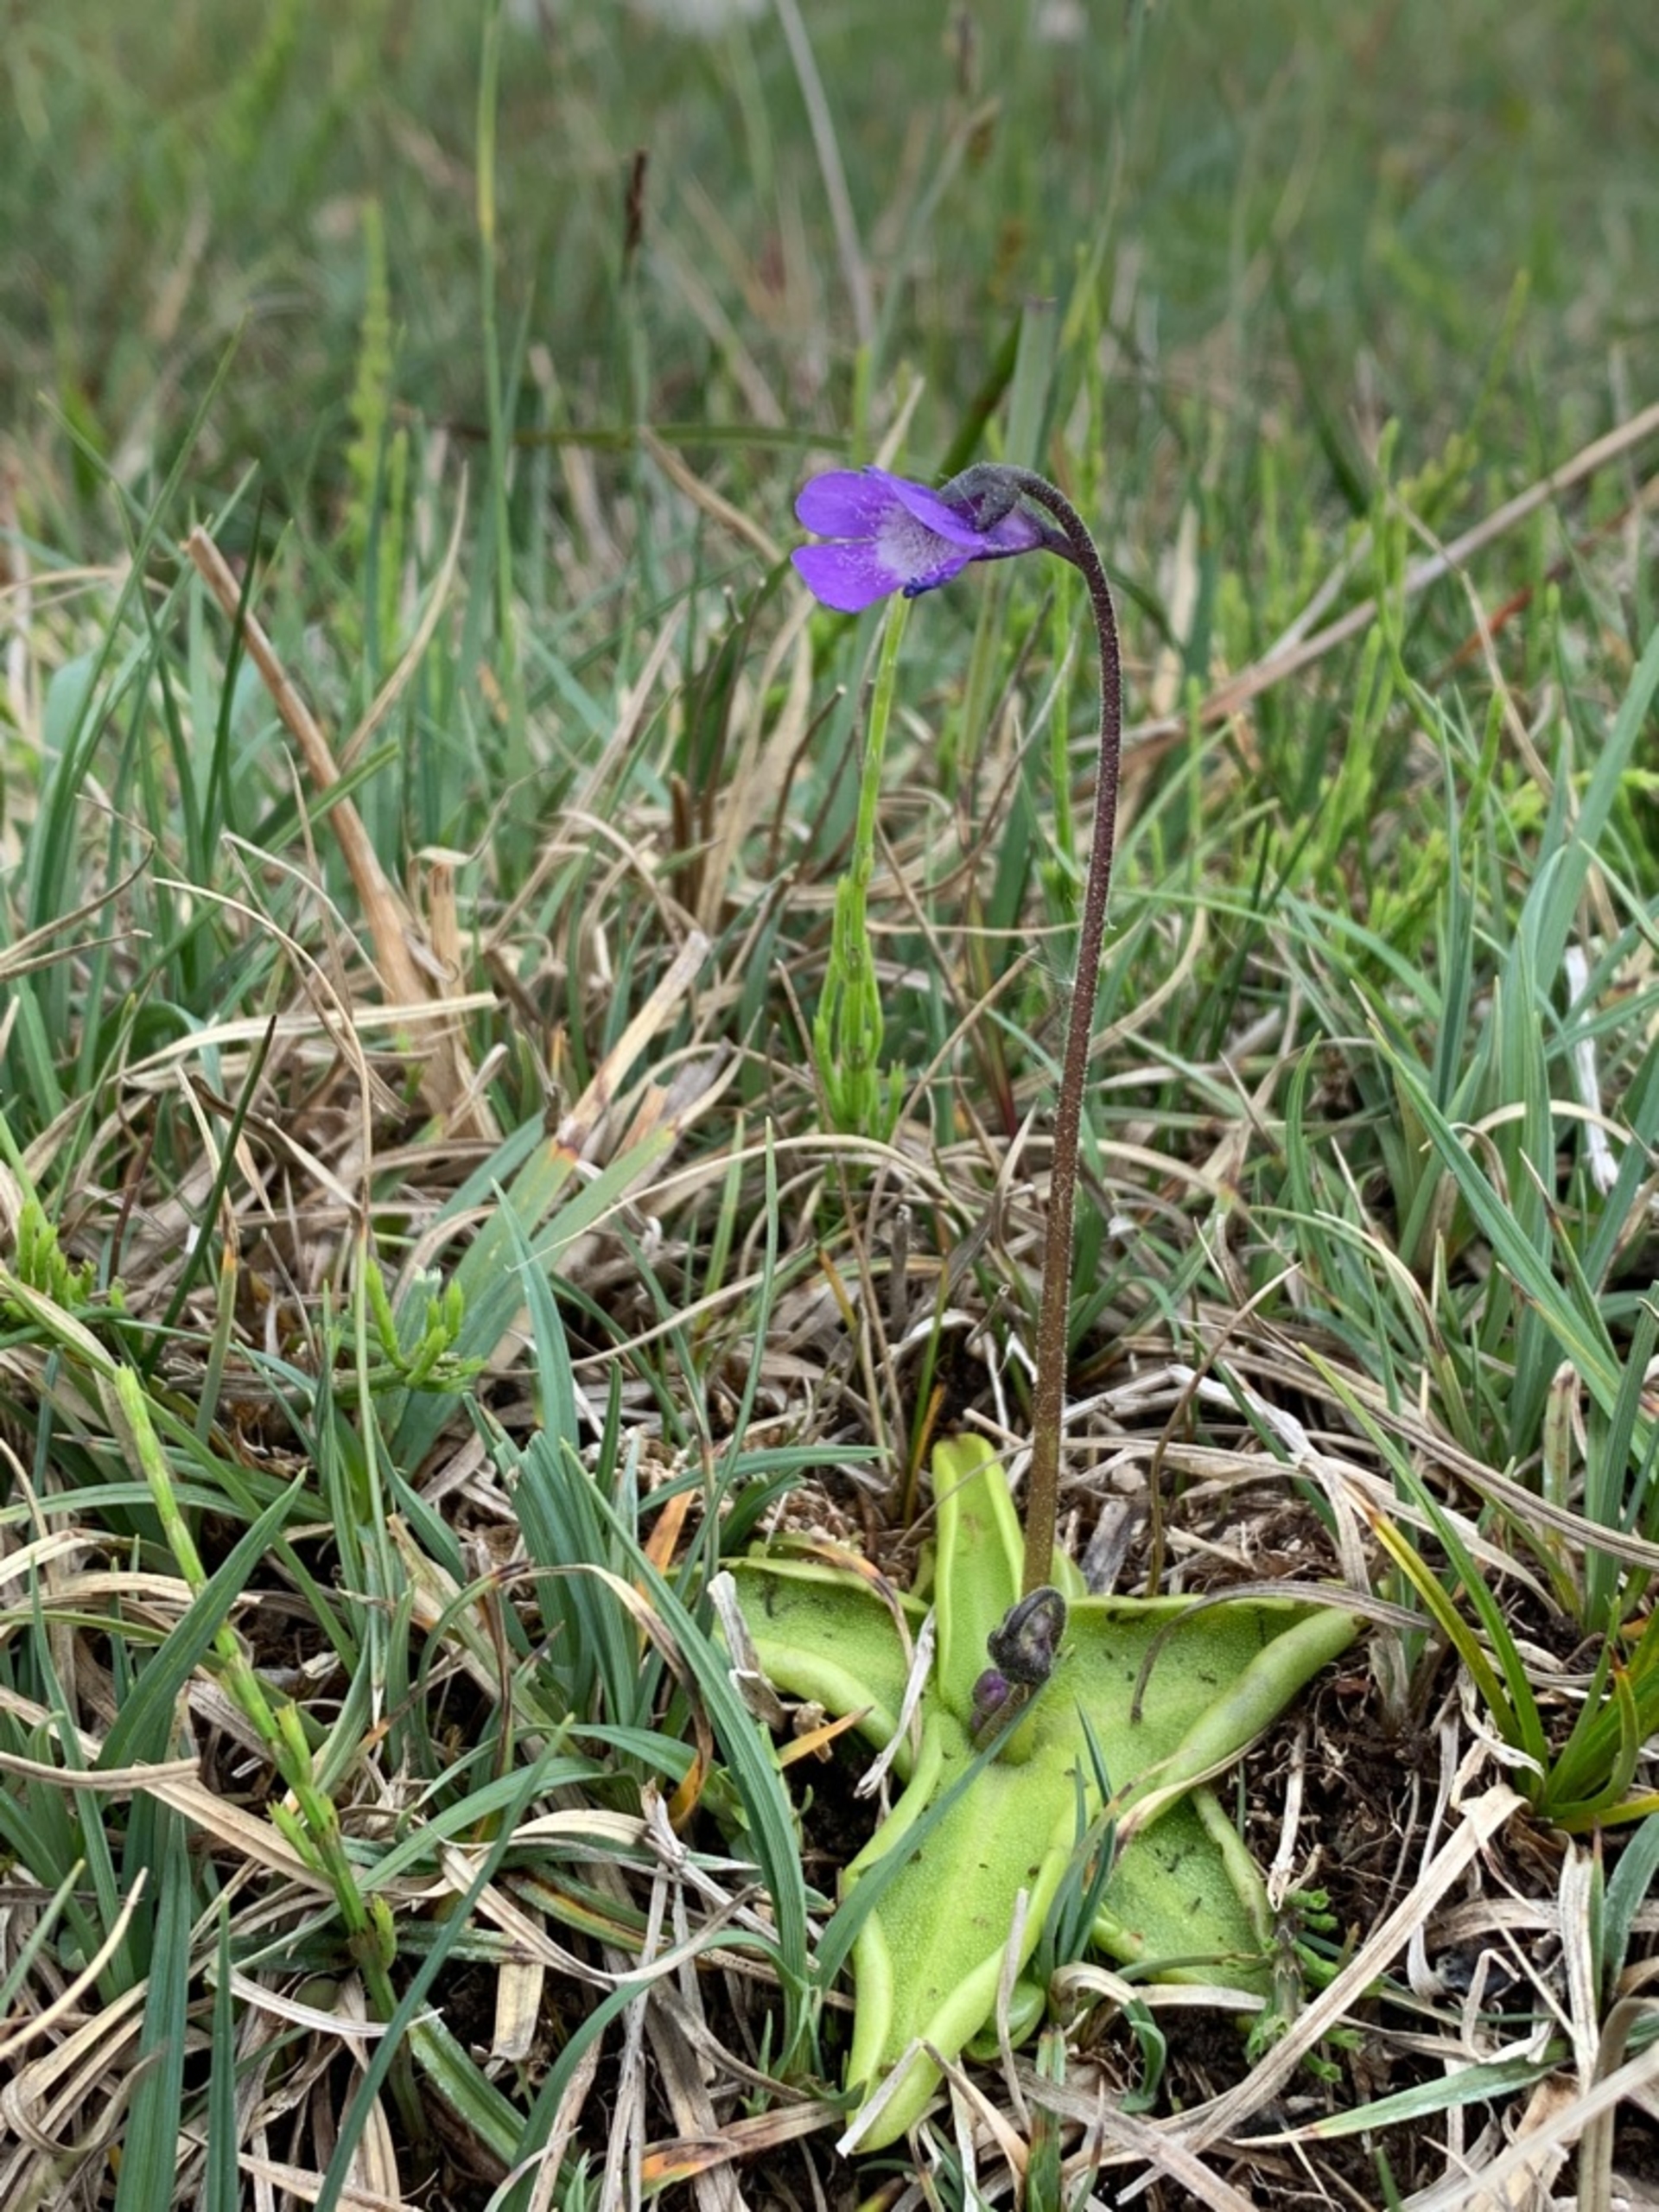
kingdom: Plantae
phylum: Tracheophyta
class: Magnoliopsida
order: Lamiales
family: Lentibulariaceae
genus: Pinguicula
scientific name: Pinguicula vulgaris
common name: Vibefedt
